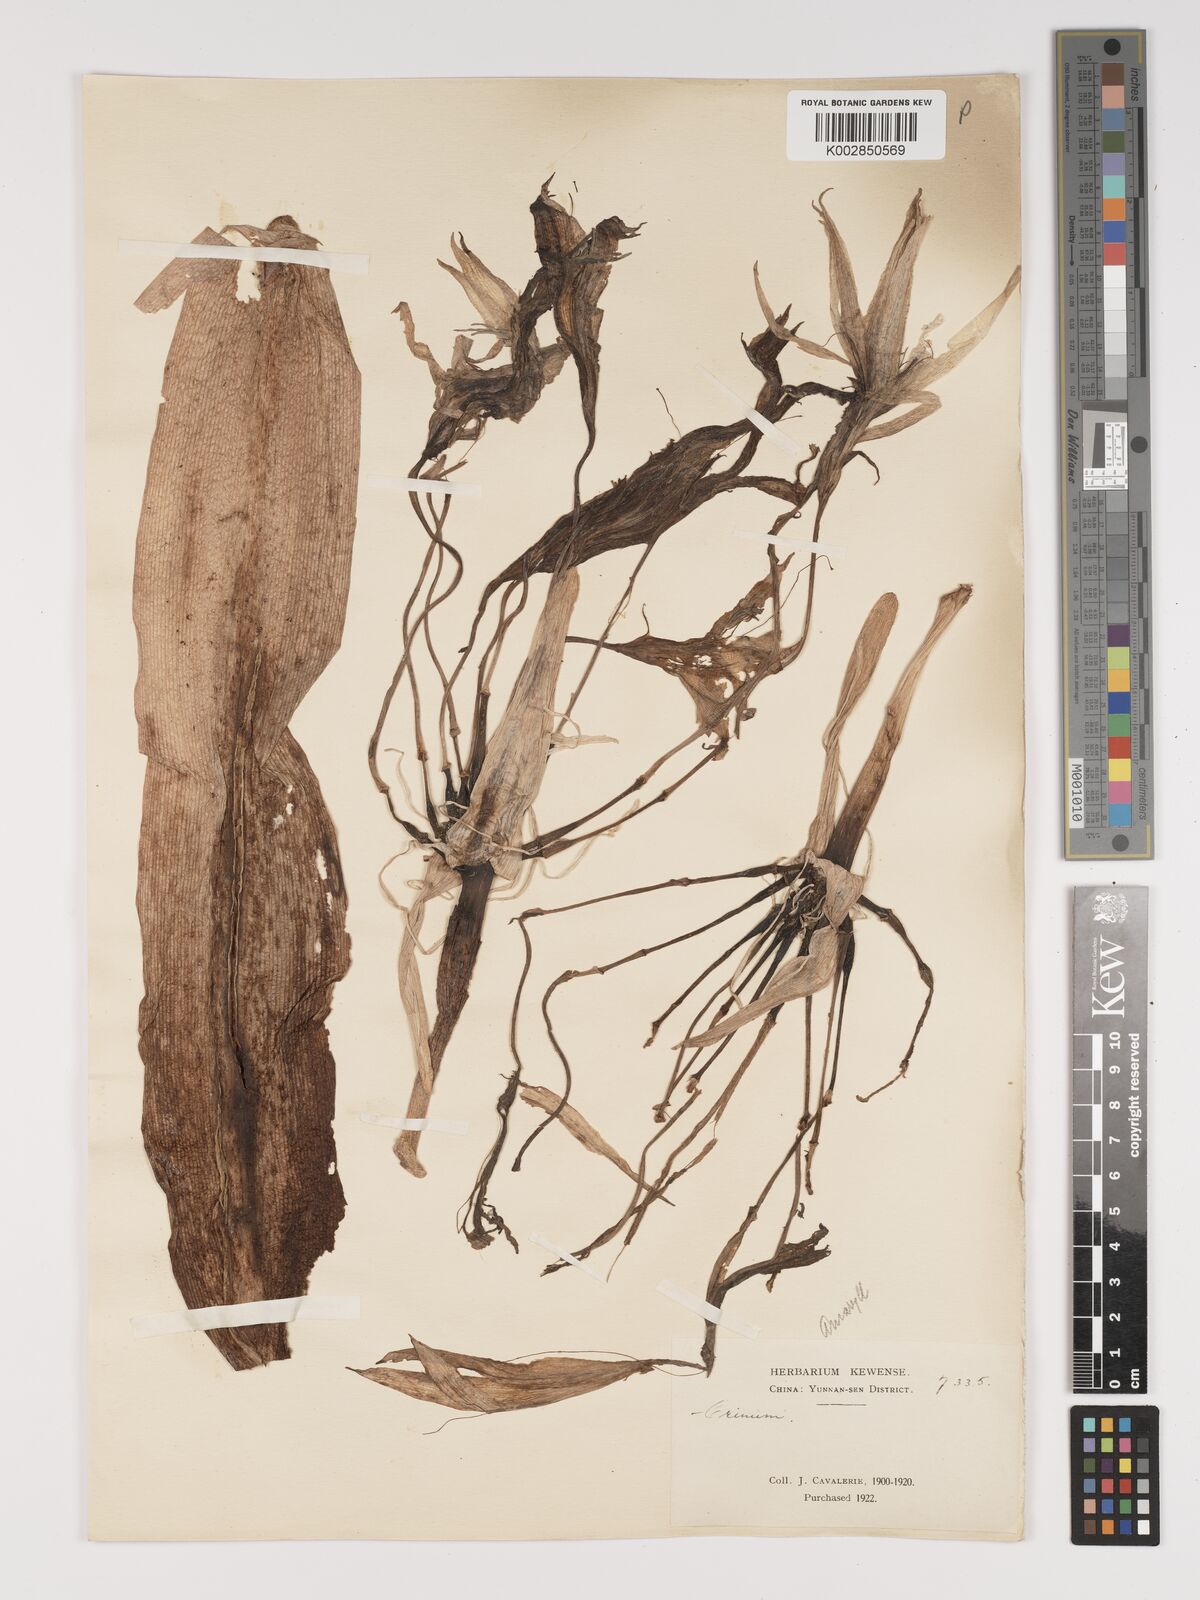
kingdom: Plantae
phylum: Tracheophyta
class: Liliopsida
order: Asparagales
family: Amaryllidaceae
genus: Crinum
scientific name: Crinum asiaticum
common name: Poisonbulb
